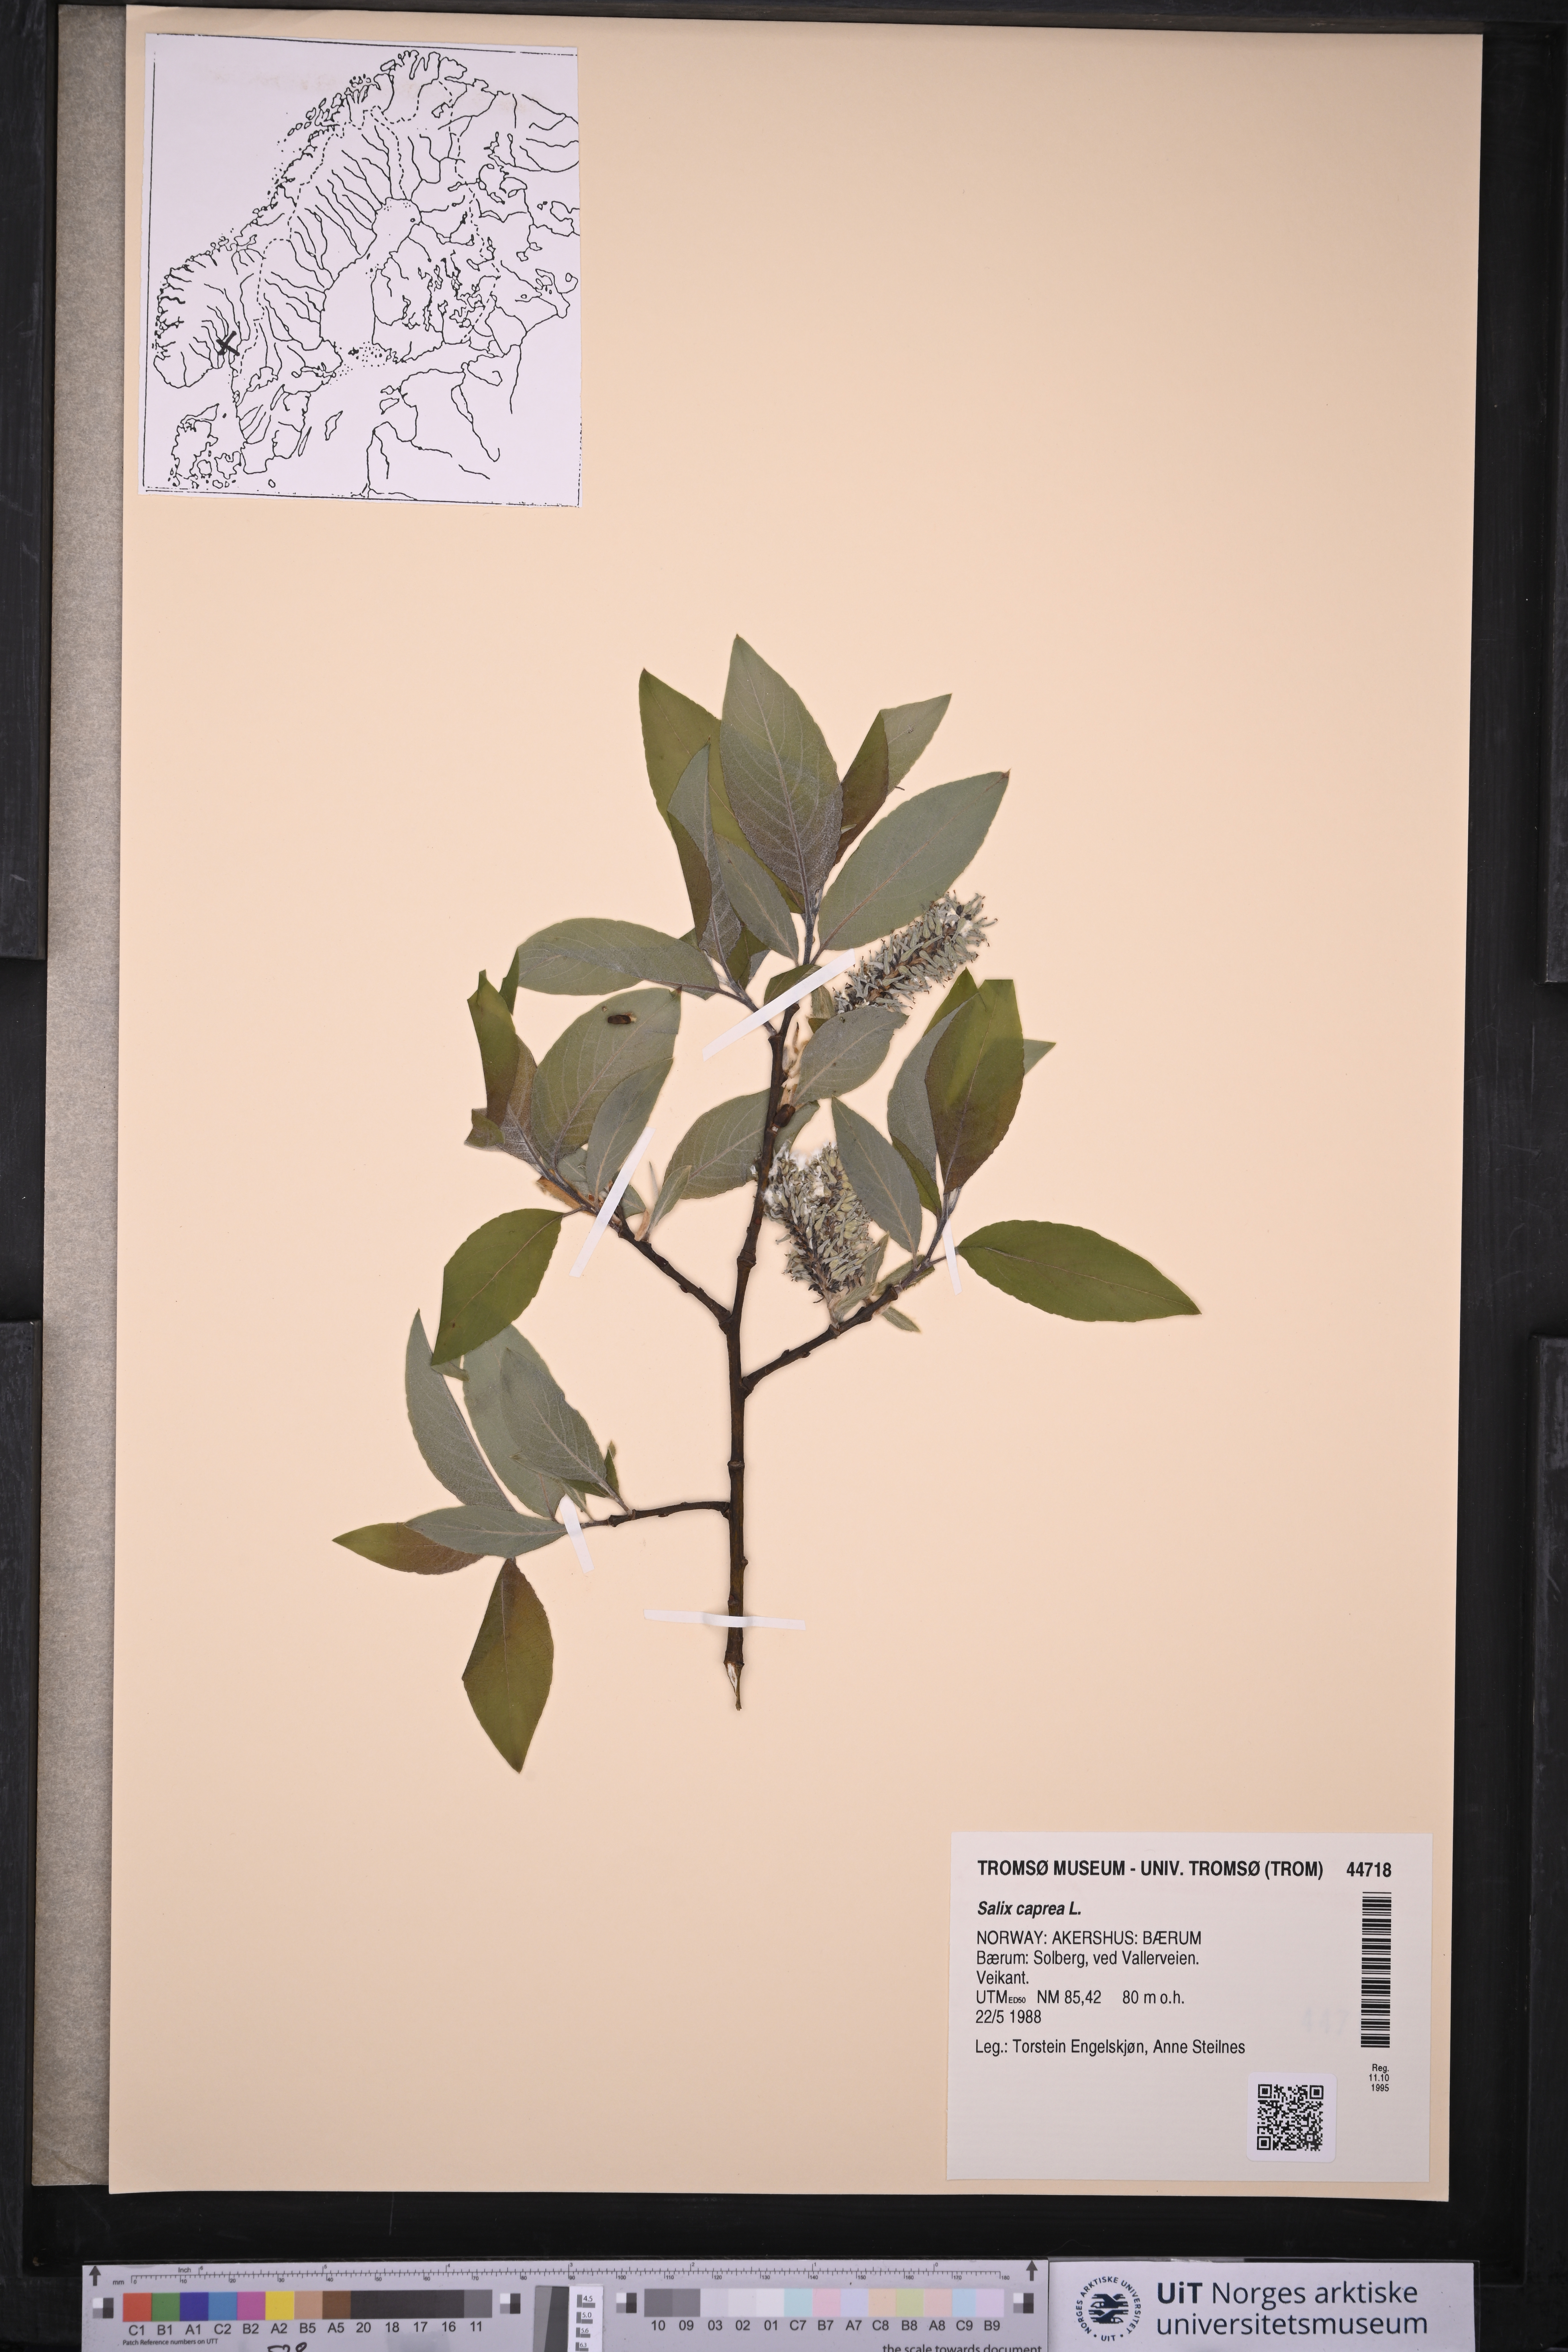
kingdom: Plantae
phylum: Tracheophyta
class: Magnoliopsida
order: Malpighiales
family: Salicaceae
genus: Salix
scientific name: Salix caprea
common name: Goat willow
